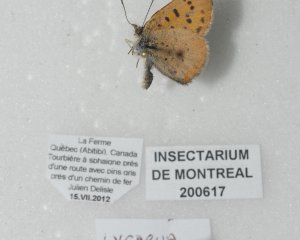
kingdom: Animalia
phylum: Arthropoda
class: Insecta
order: Lepidoptera
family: Lycaenidae
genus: Epidemia
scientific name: Epidemia dorcas
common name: Dorcas Copper
